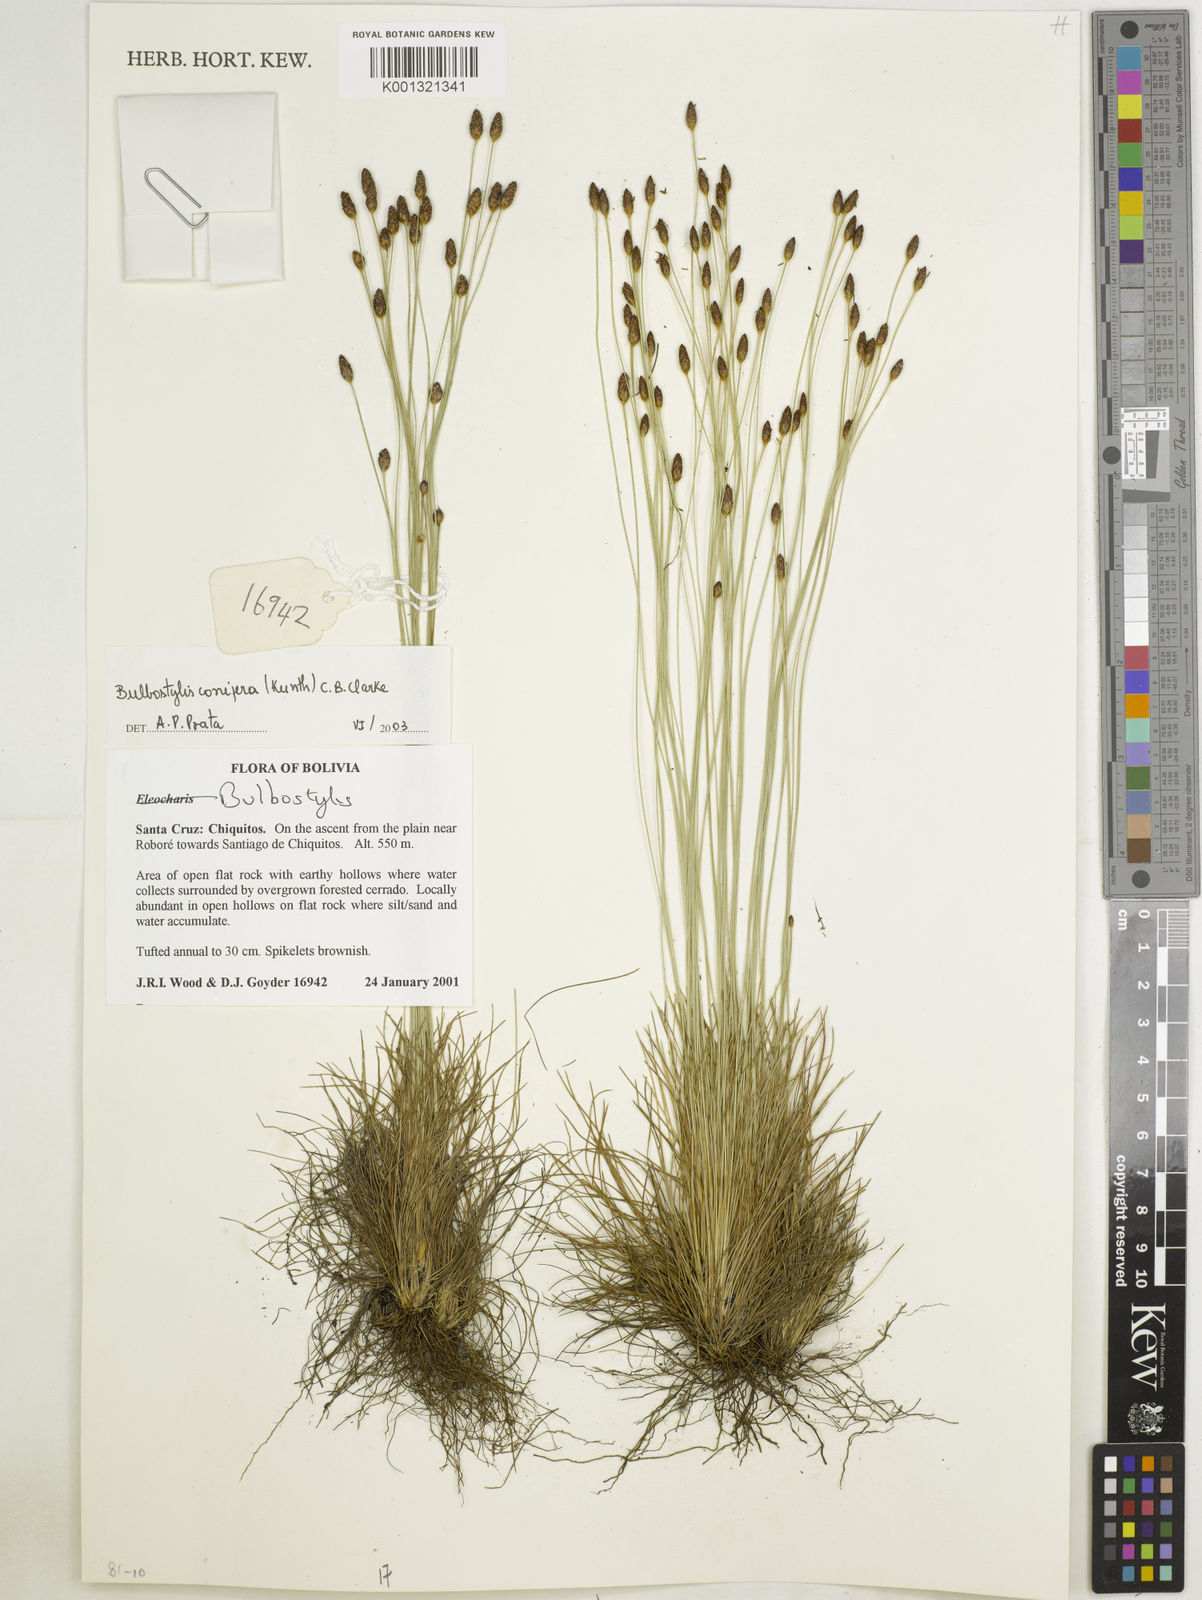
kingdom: Plantae
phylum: Tracheophyta
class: Liliopsida
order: Poales
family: Cyperaceae
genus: Bulbostylis
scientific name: Bulbostylis conifera
